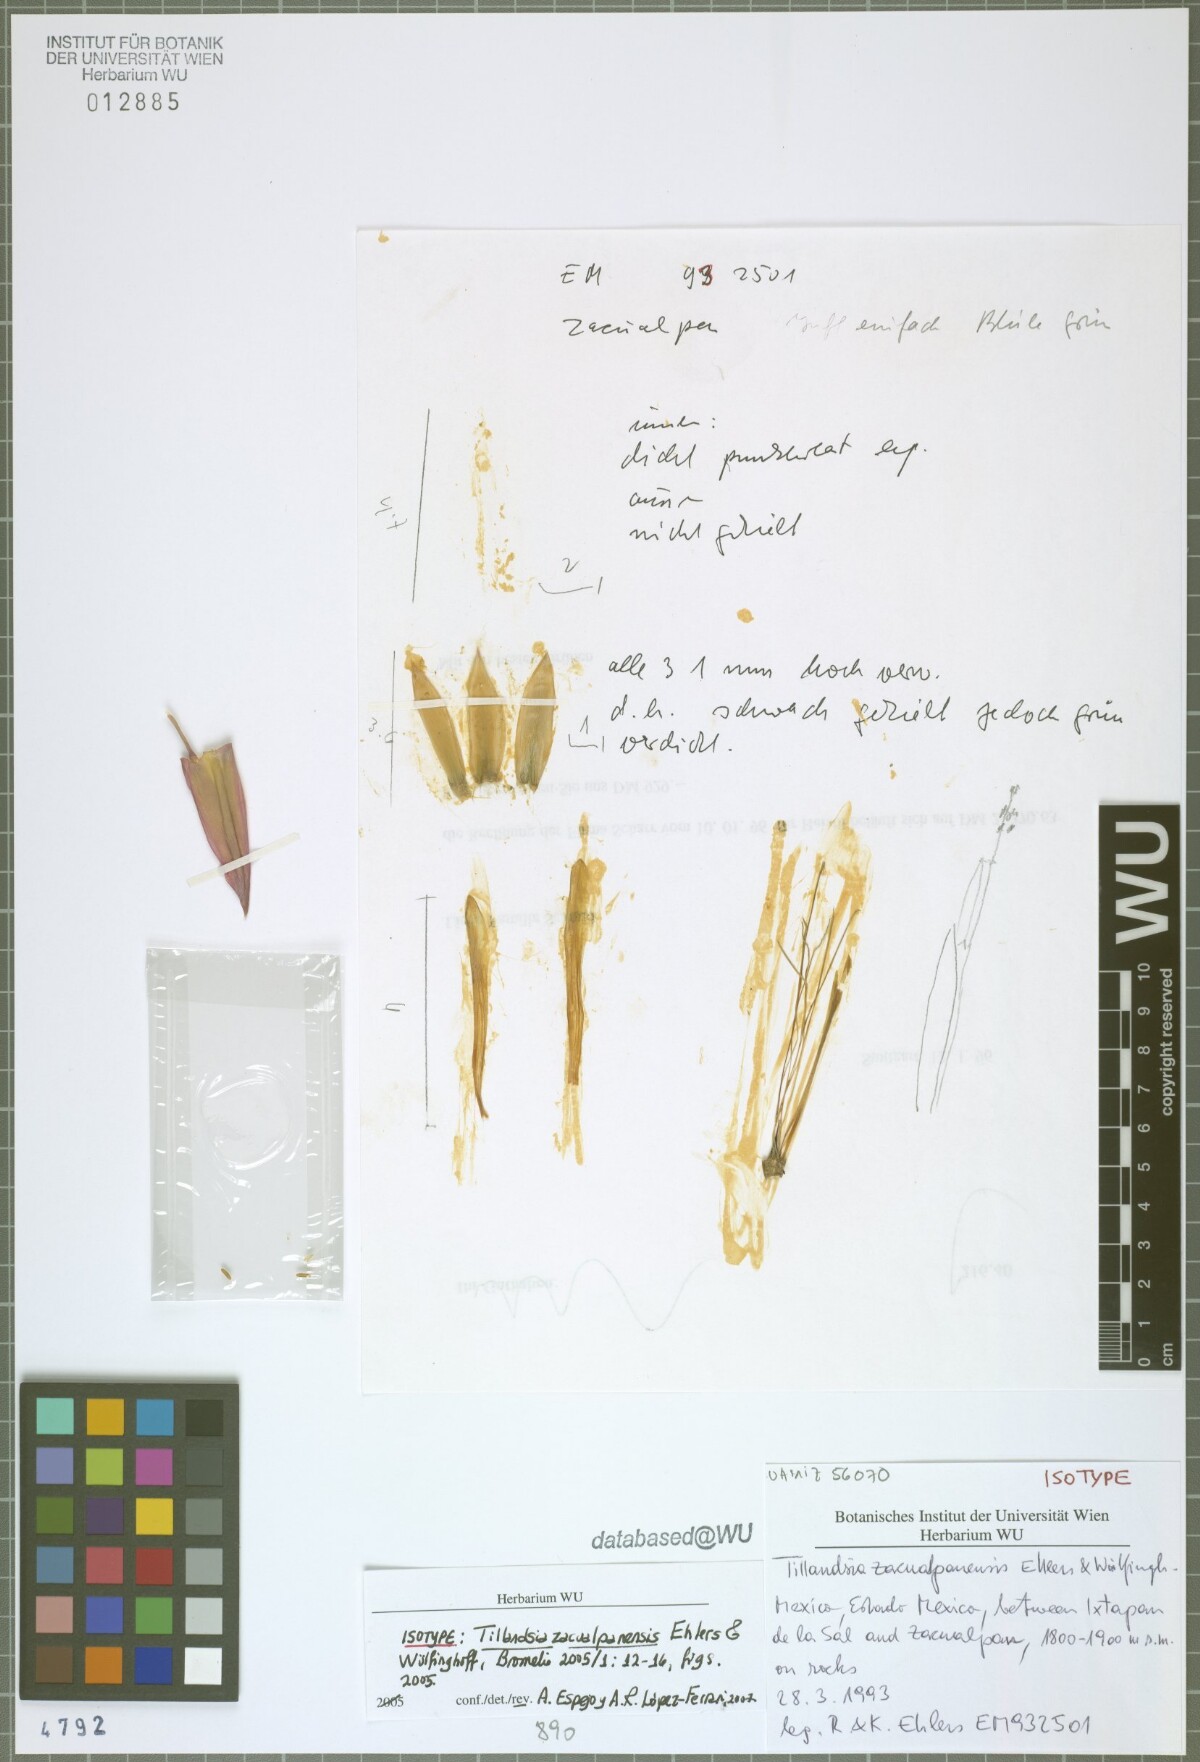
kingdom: Plantae
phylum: Tracheophyta
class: Liliopsida
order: Poales
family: Bromeliaceae
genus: Tillandsia
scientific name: Tillandsia zacualpanensis
